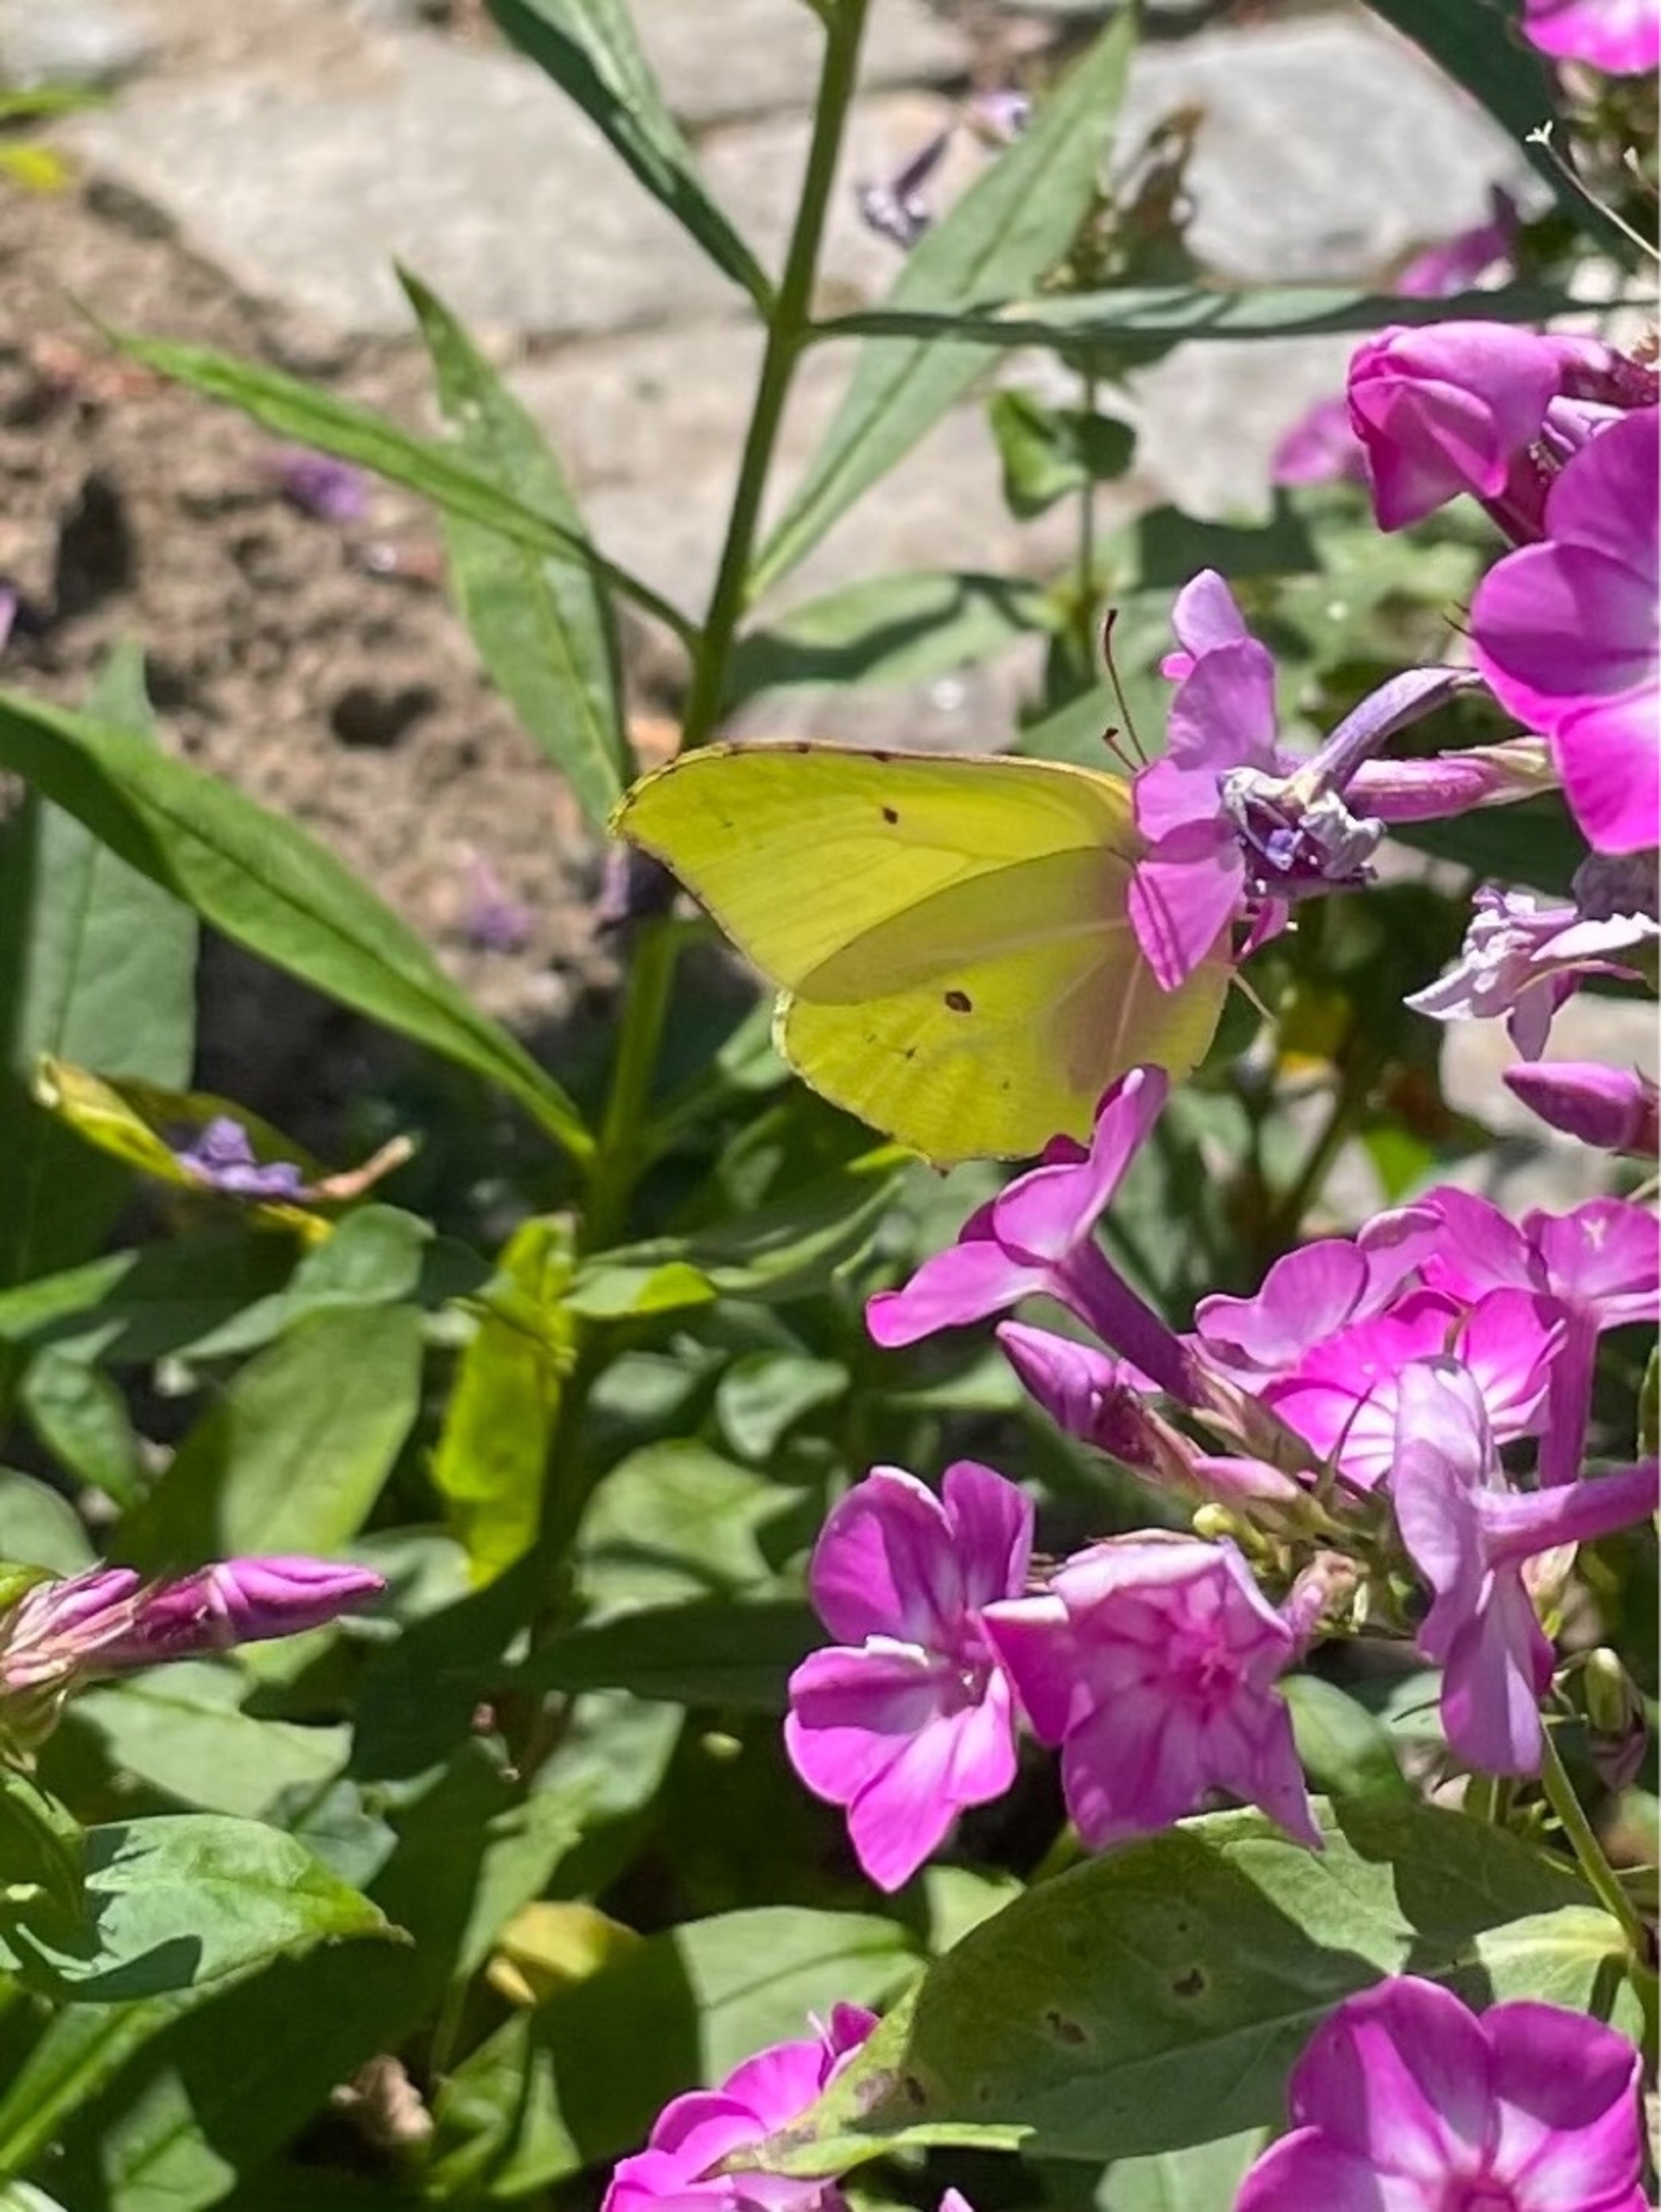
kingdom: Animalia
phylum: Arthropoda
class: Insecta
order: Lepidoptera
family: Pieridae
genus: Gonepteryx
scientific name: Gonepteryx rhamni
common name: Citronsommerfugl
